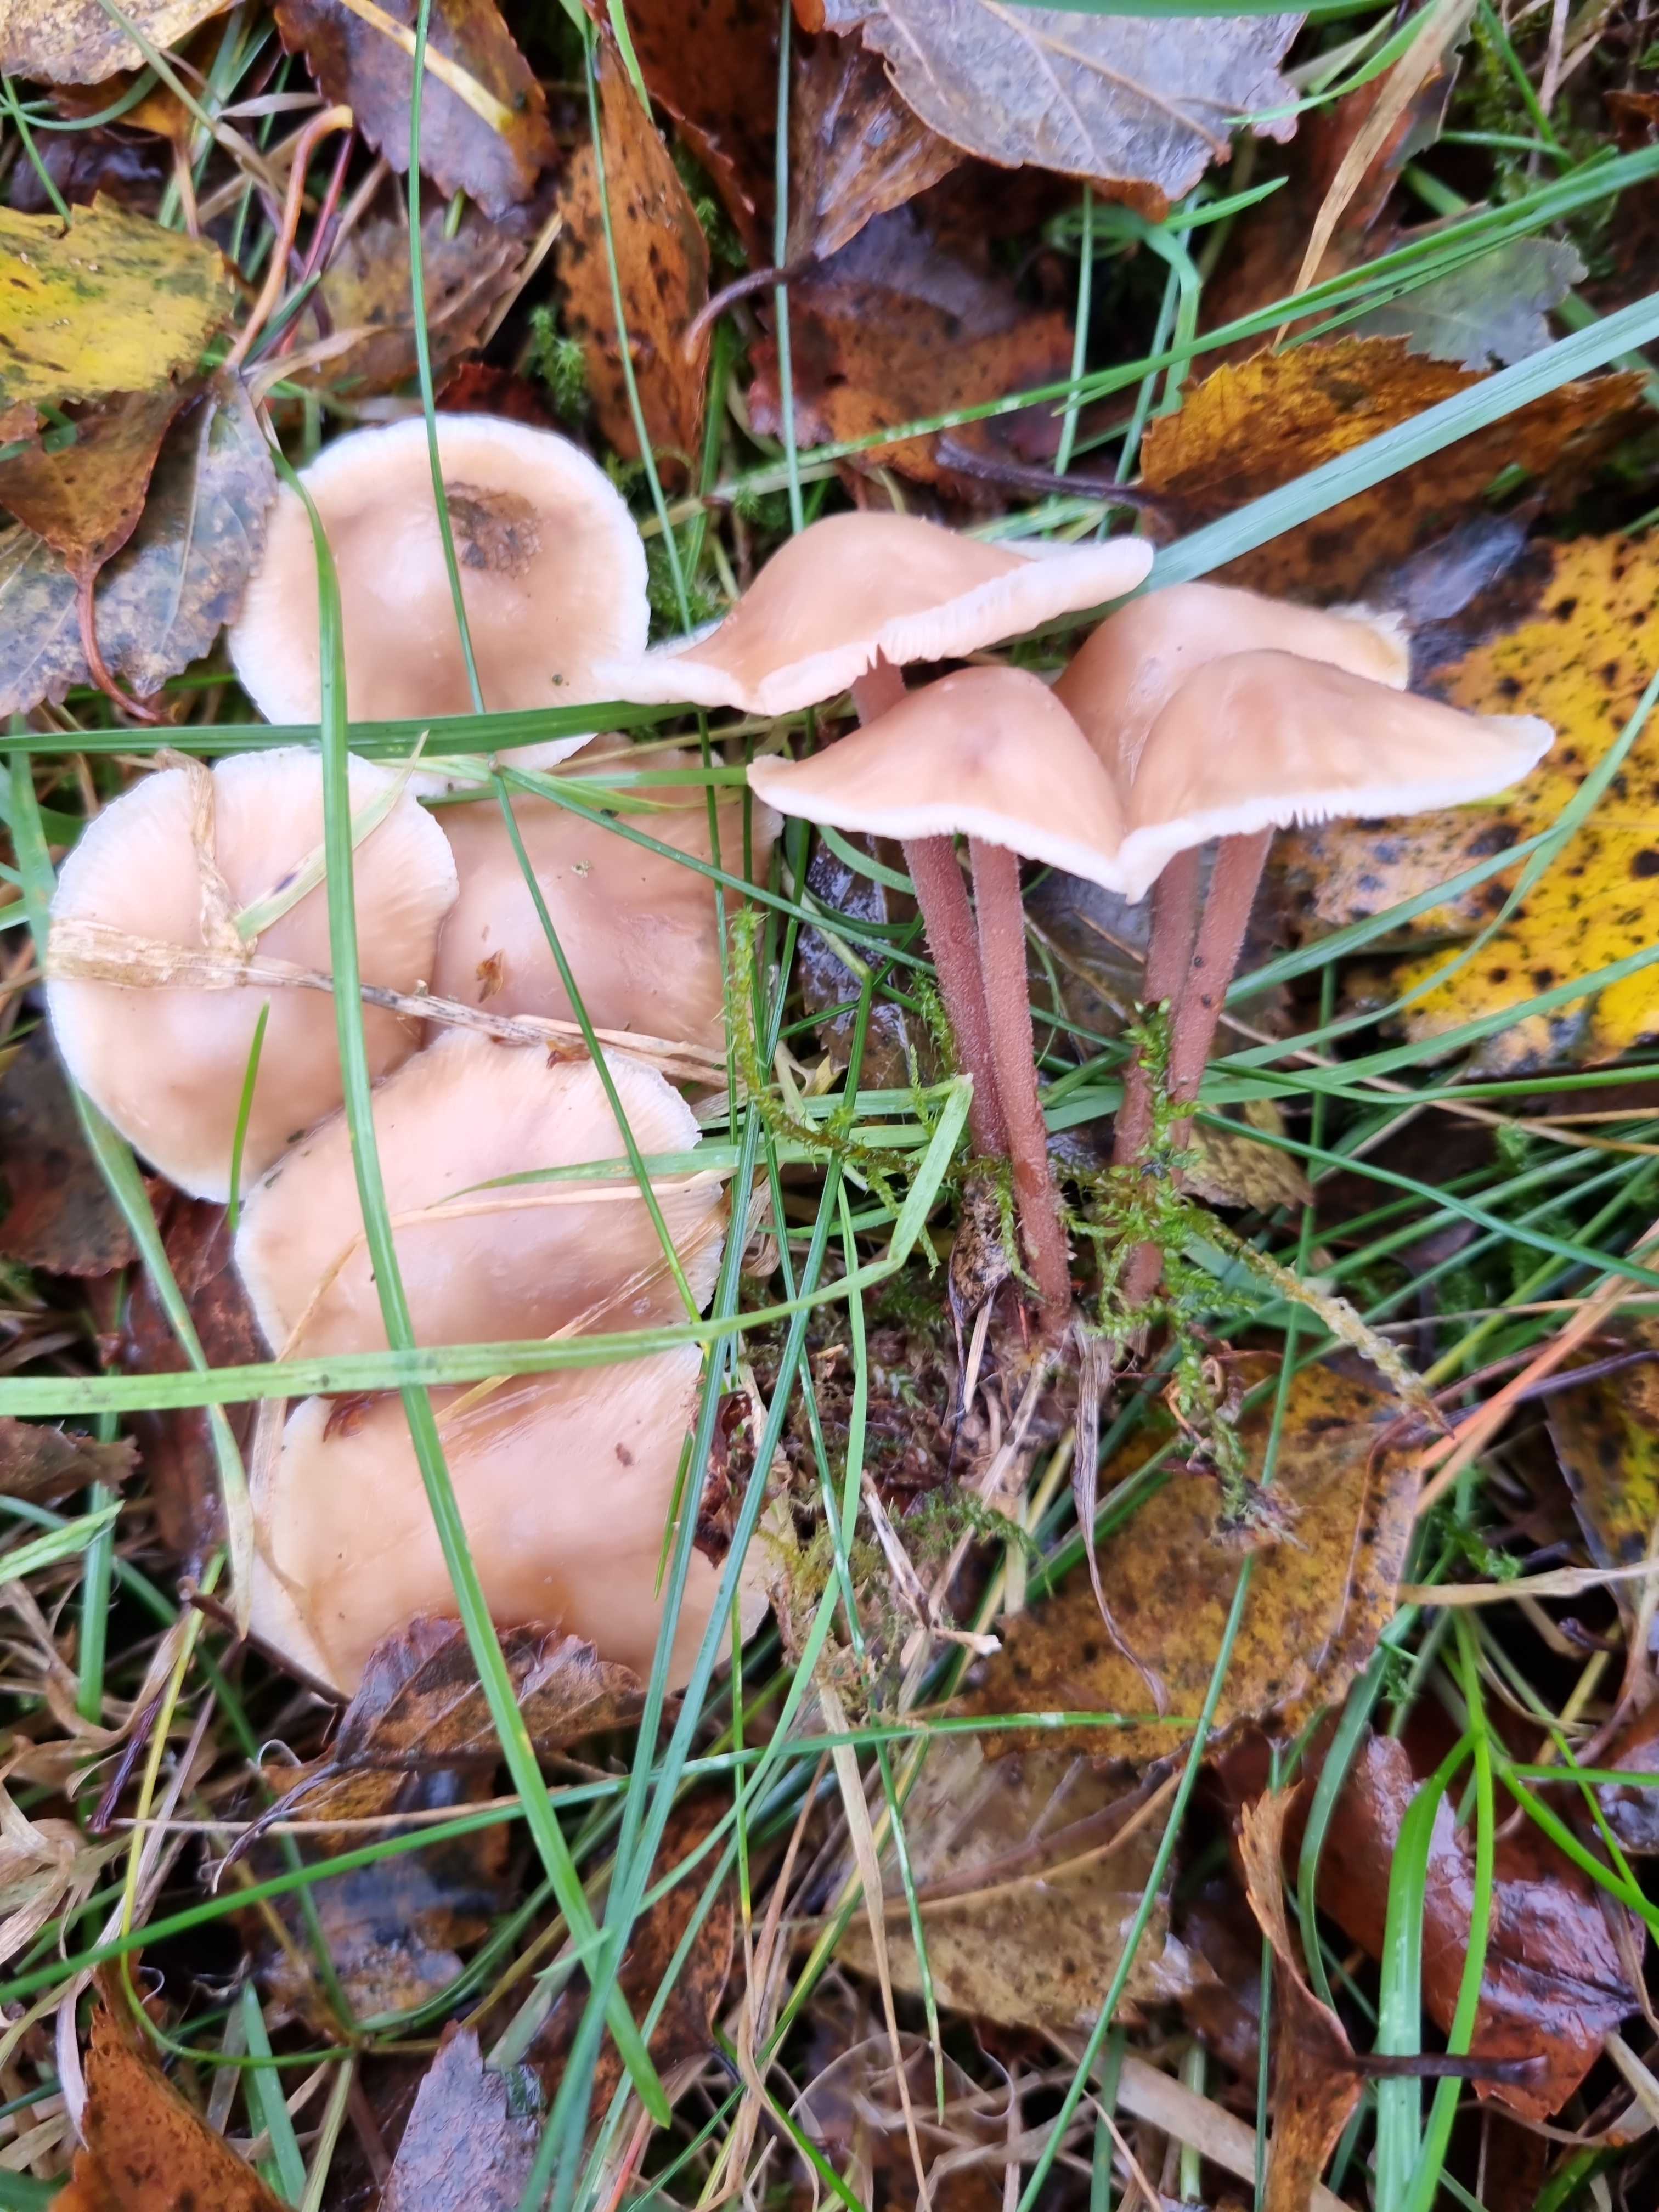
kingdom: Fungi
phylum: Basidiomycota
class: Agaricomycetes
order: Agaricales
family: Omphalotaceae
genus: Collybiopsis
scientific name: Collybiopsis confluens
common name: knippe-fladhat
